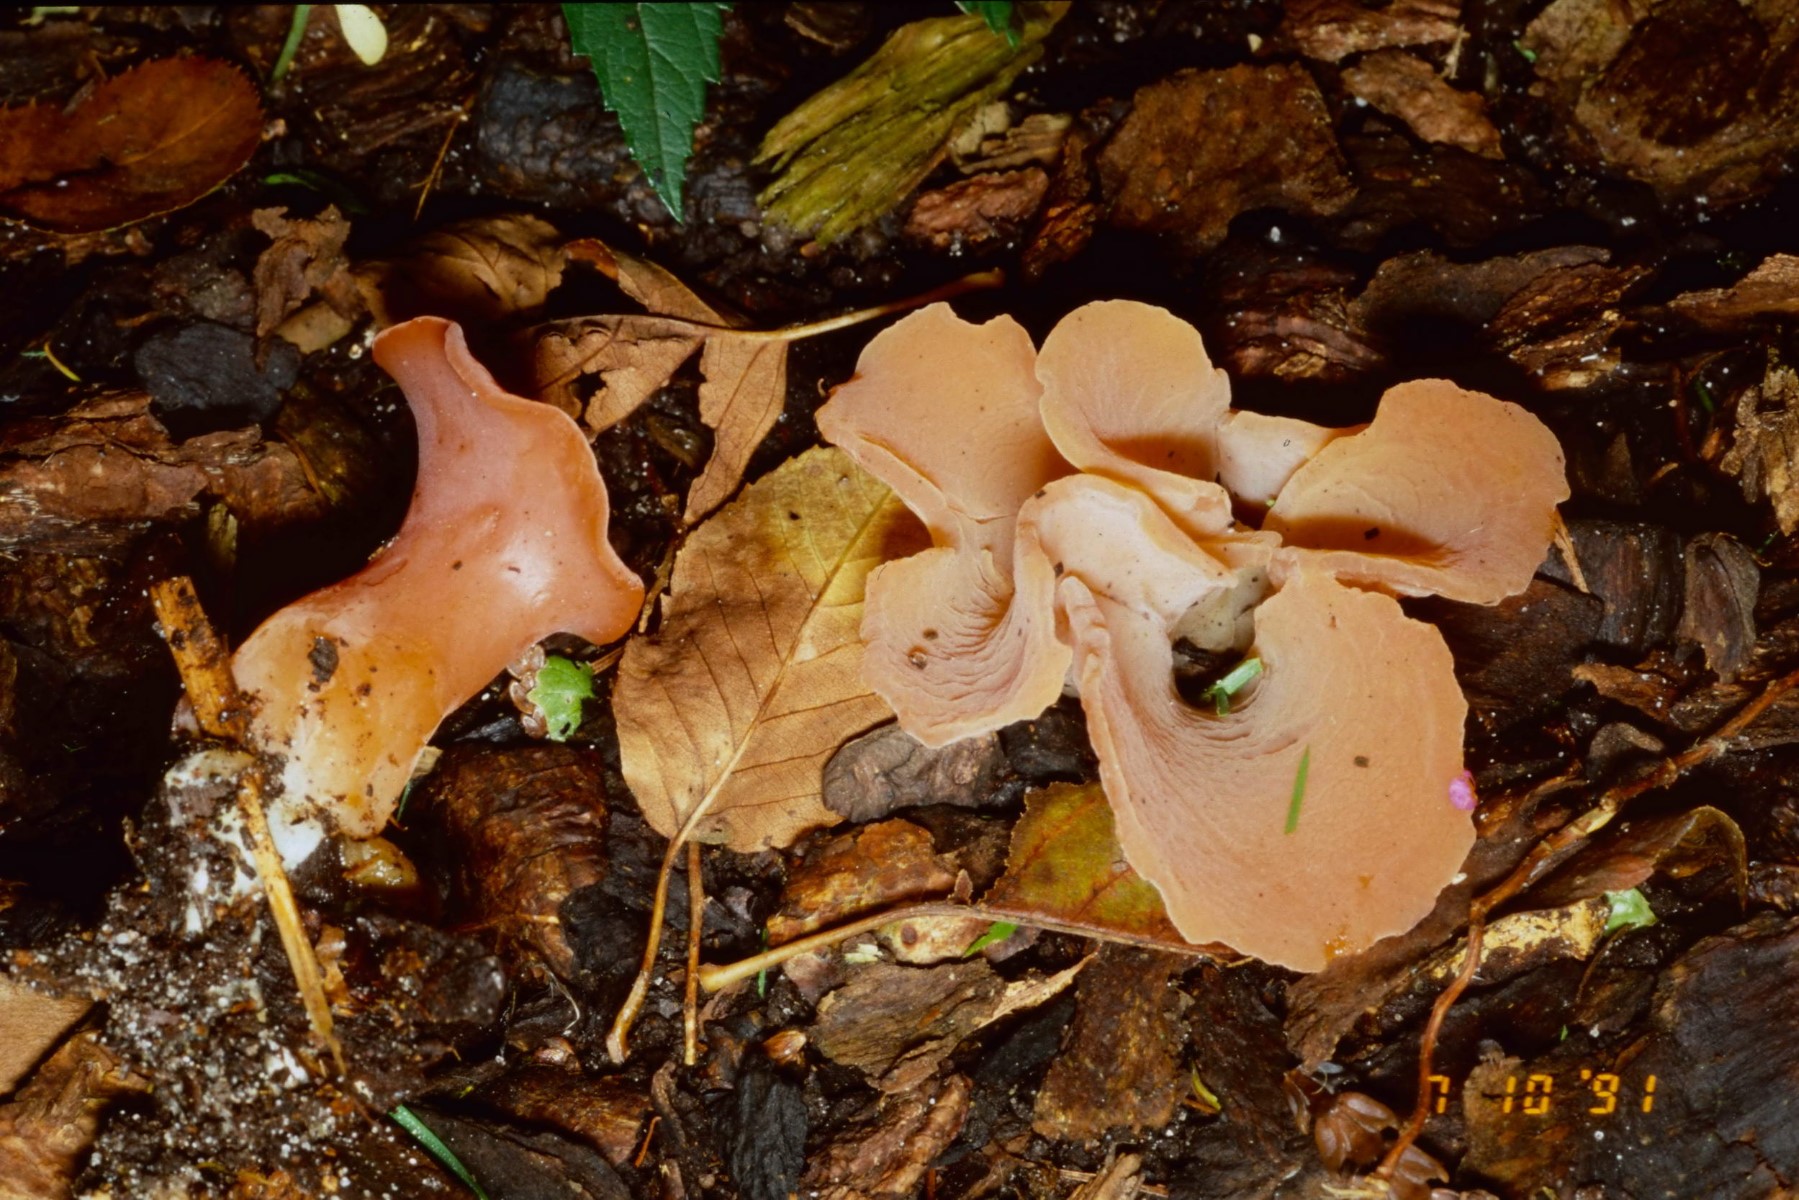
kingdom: Fungi
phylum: Basidiomycota
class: Agaricomycetes
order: Auriculariales
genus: Guepinia
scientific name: Guepinia helvelloides
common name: bævretunge
